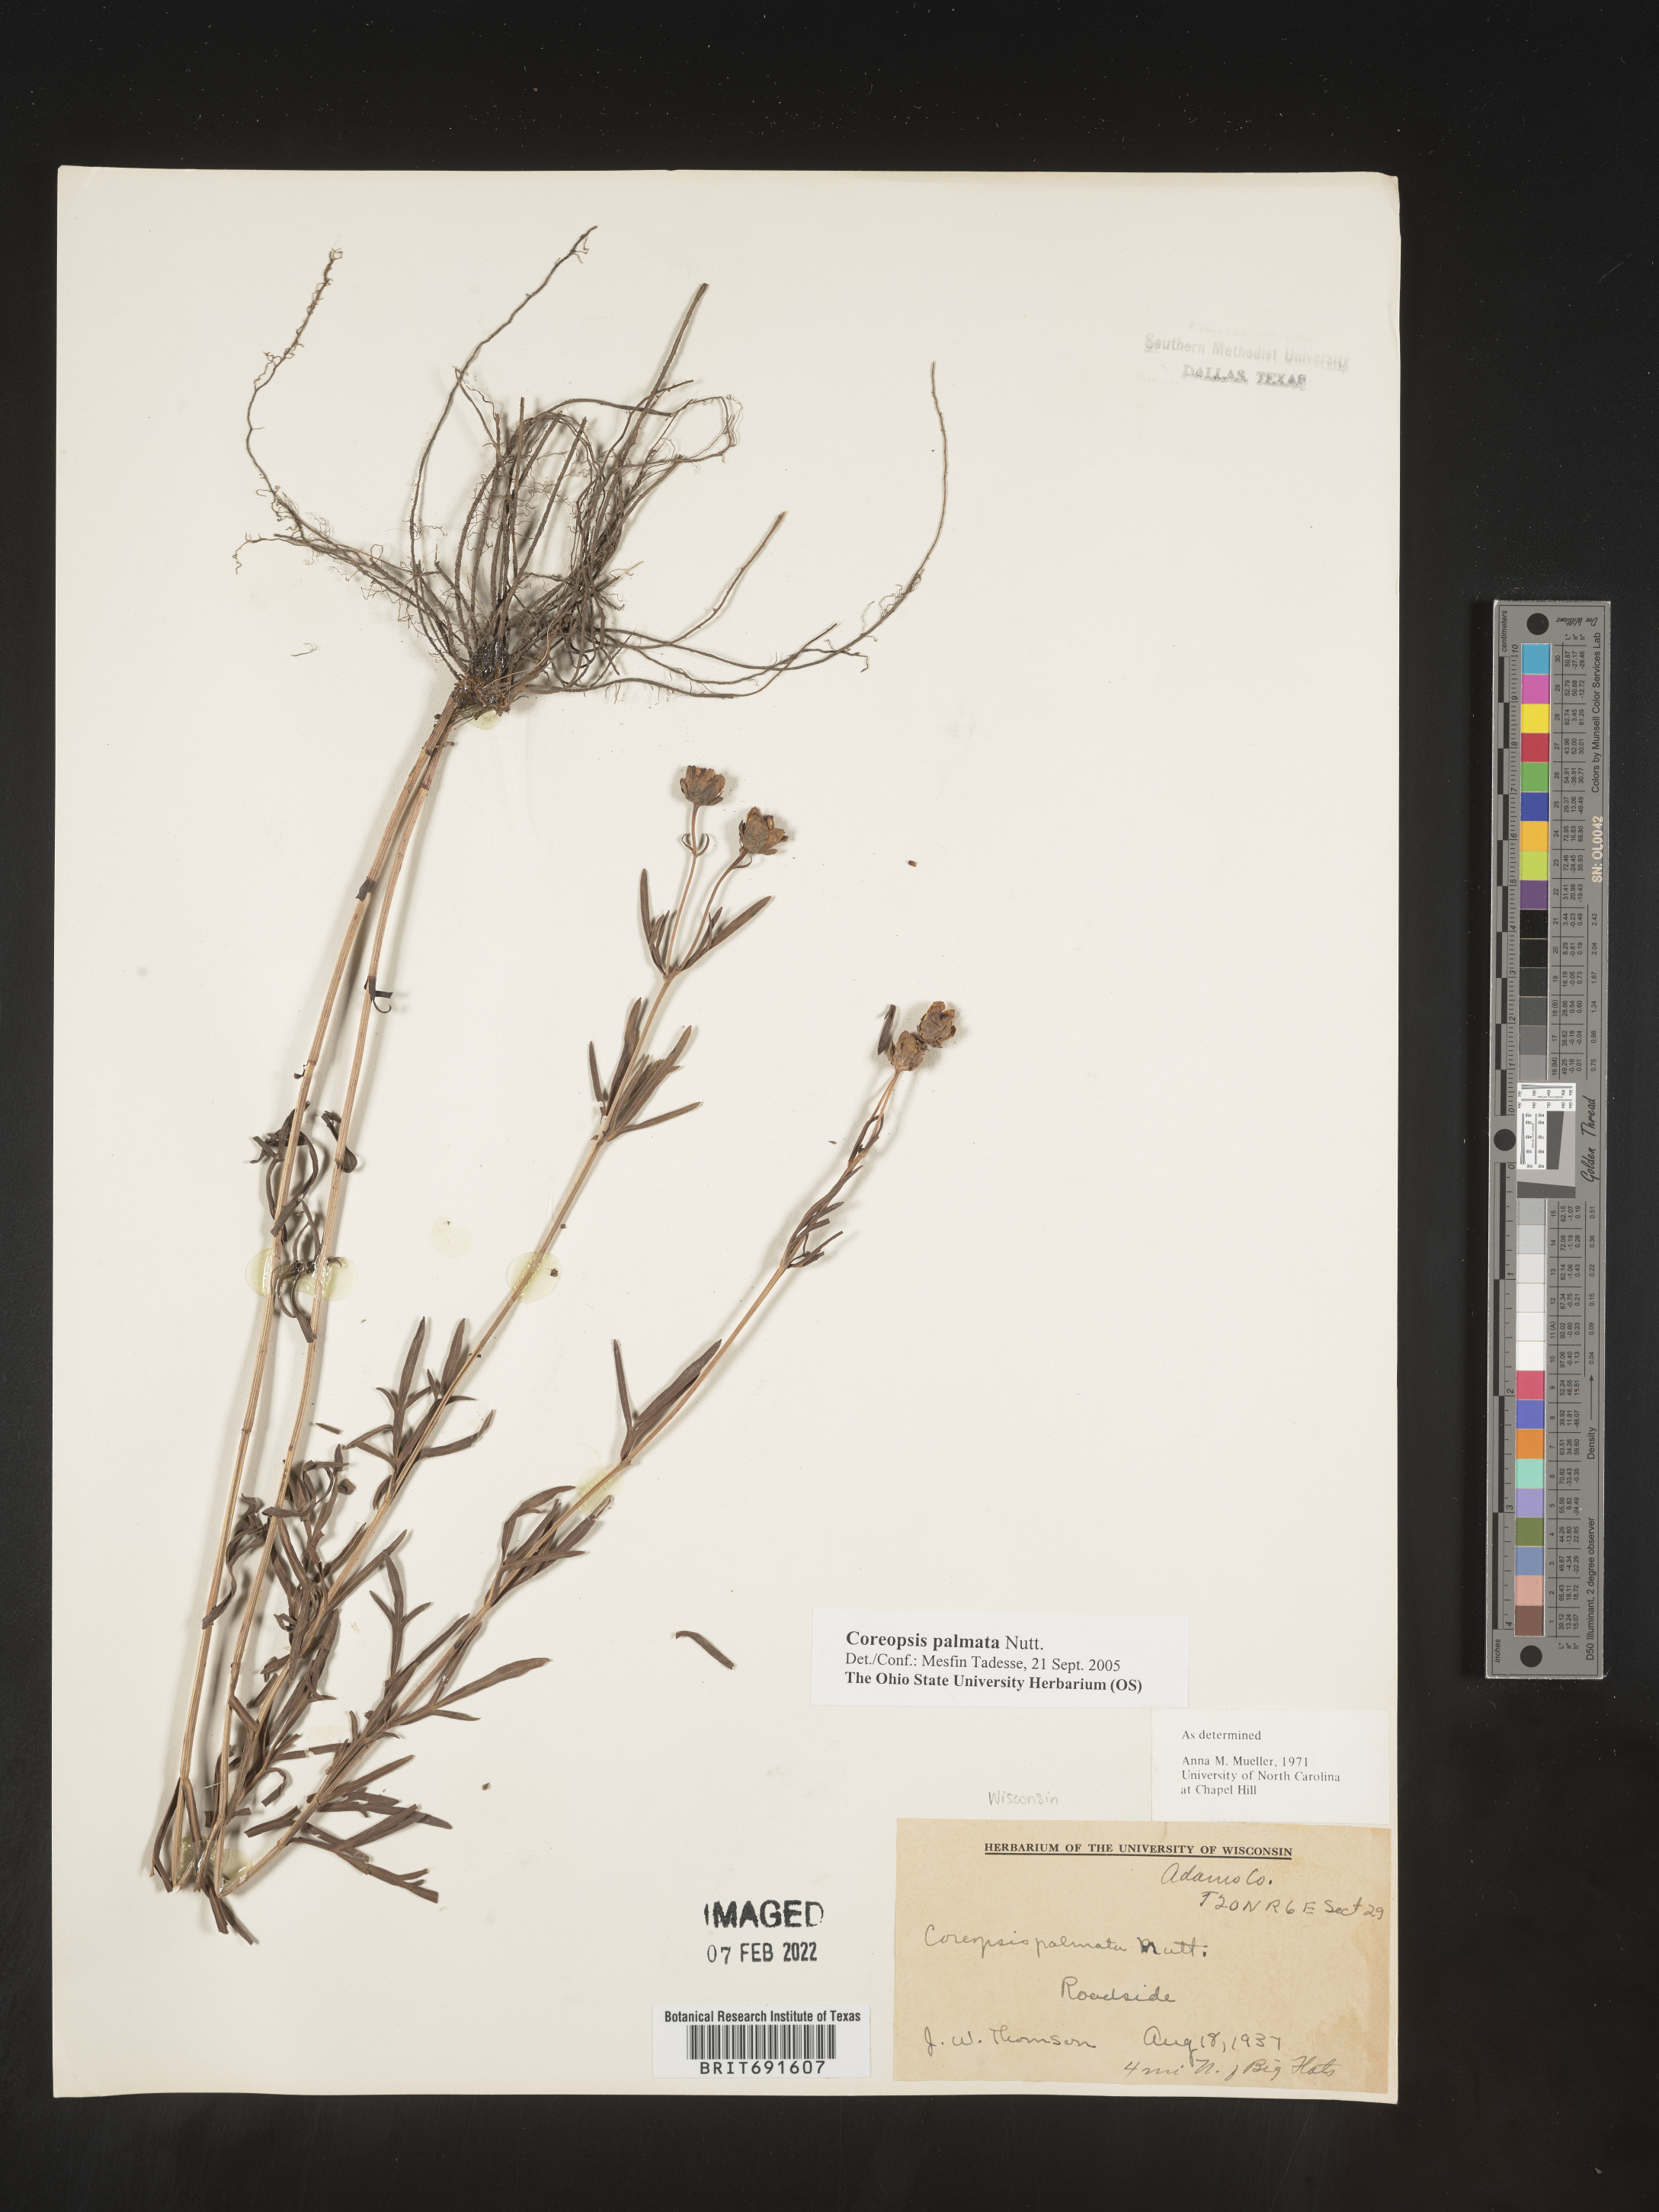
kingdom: Plantae
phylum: Tracheophyta
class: Magnoliopsida
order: Asterales
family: Asteraceae
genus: Coreopsis
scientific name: Coreopsis palmata
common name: Prairie coreopsis
